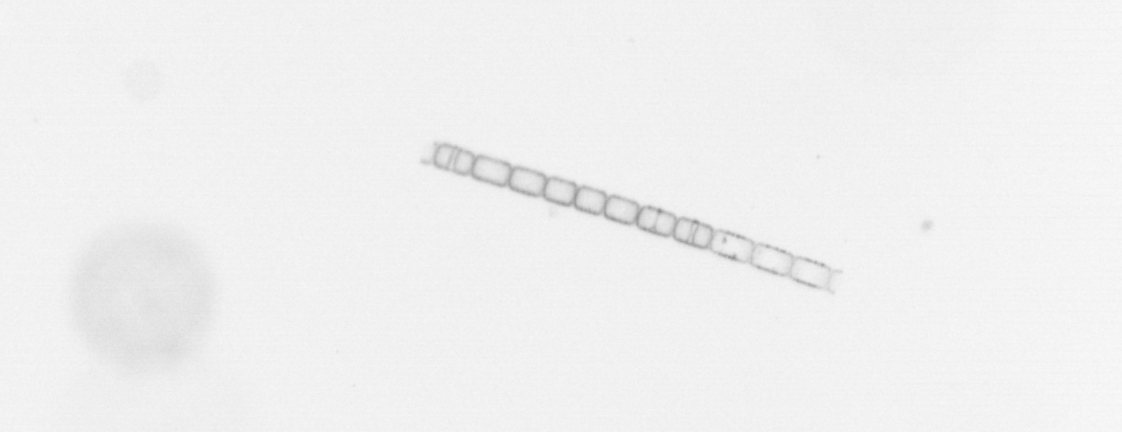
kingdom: Chromista
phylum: Ochrophyta
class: Bacillariophyceae
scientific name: Bacillariophyceae
